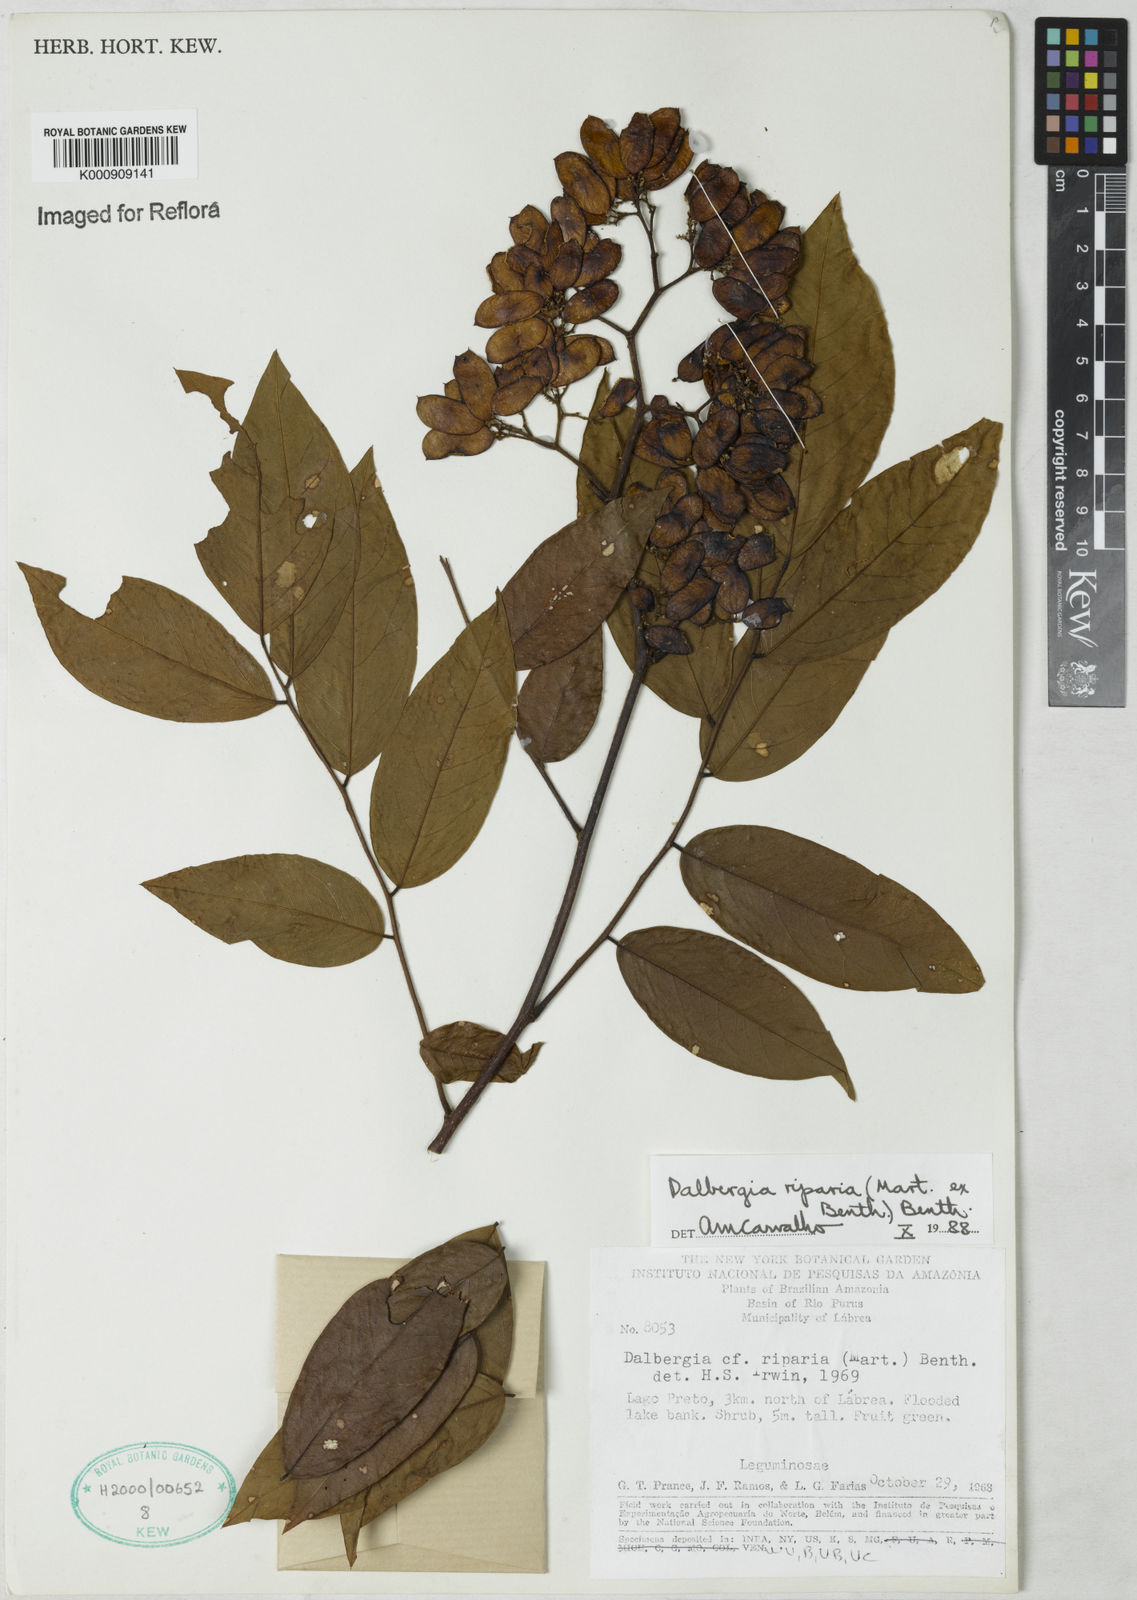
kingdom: Plantae
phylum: Tracheophyta
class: Magnoliopsida
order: Fabales
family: Fabaceae
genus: Dalbergia
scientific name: Dalbergia riparia
